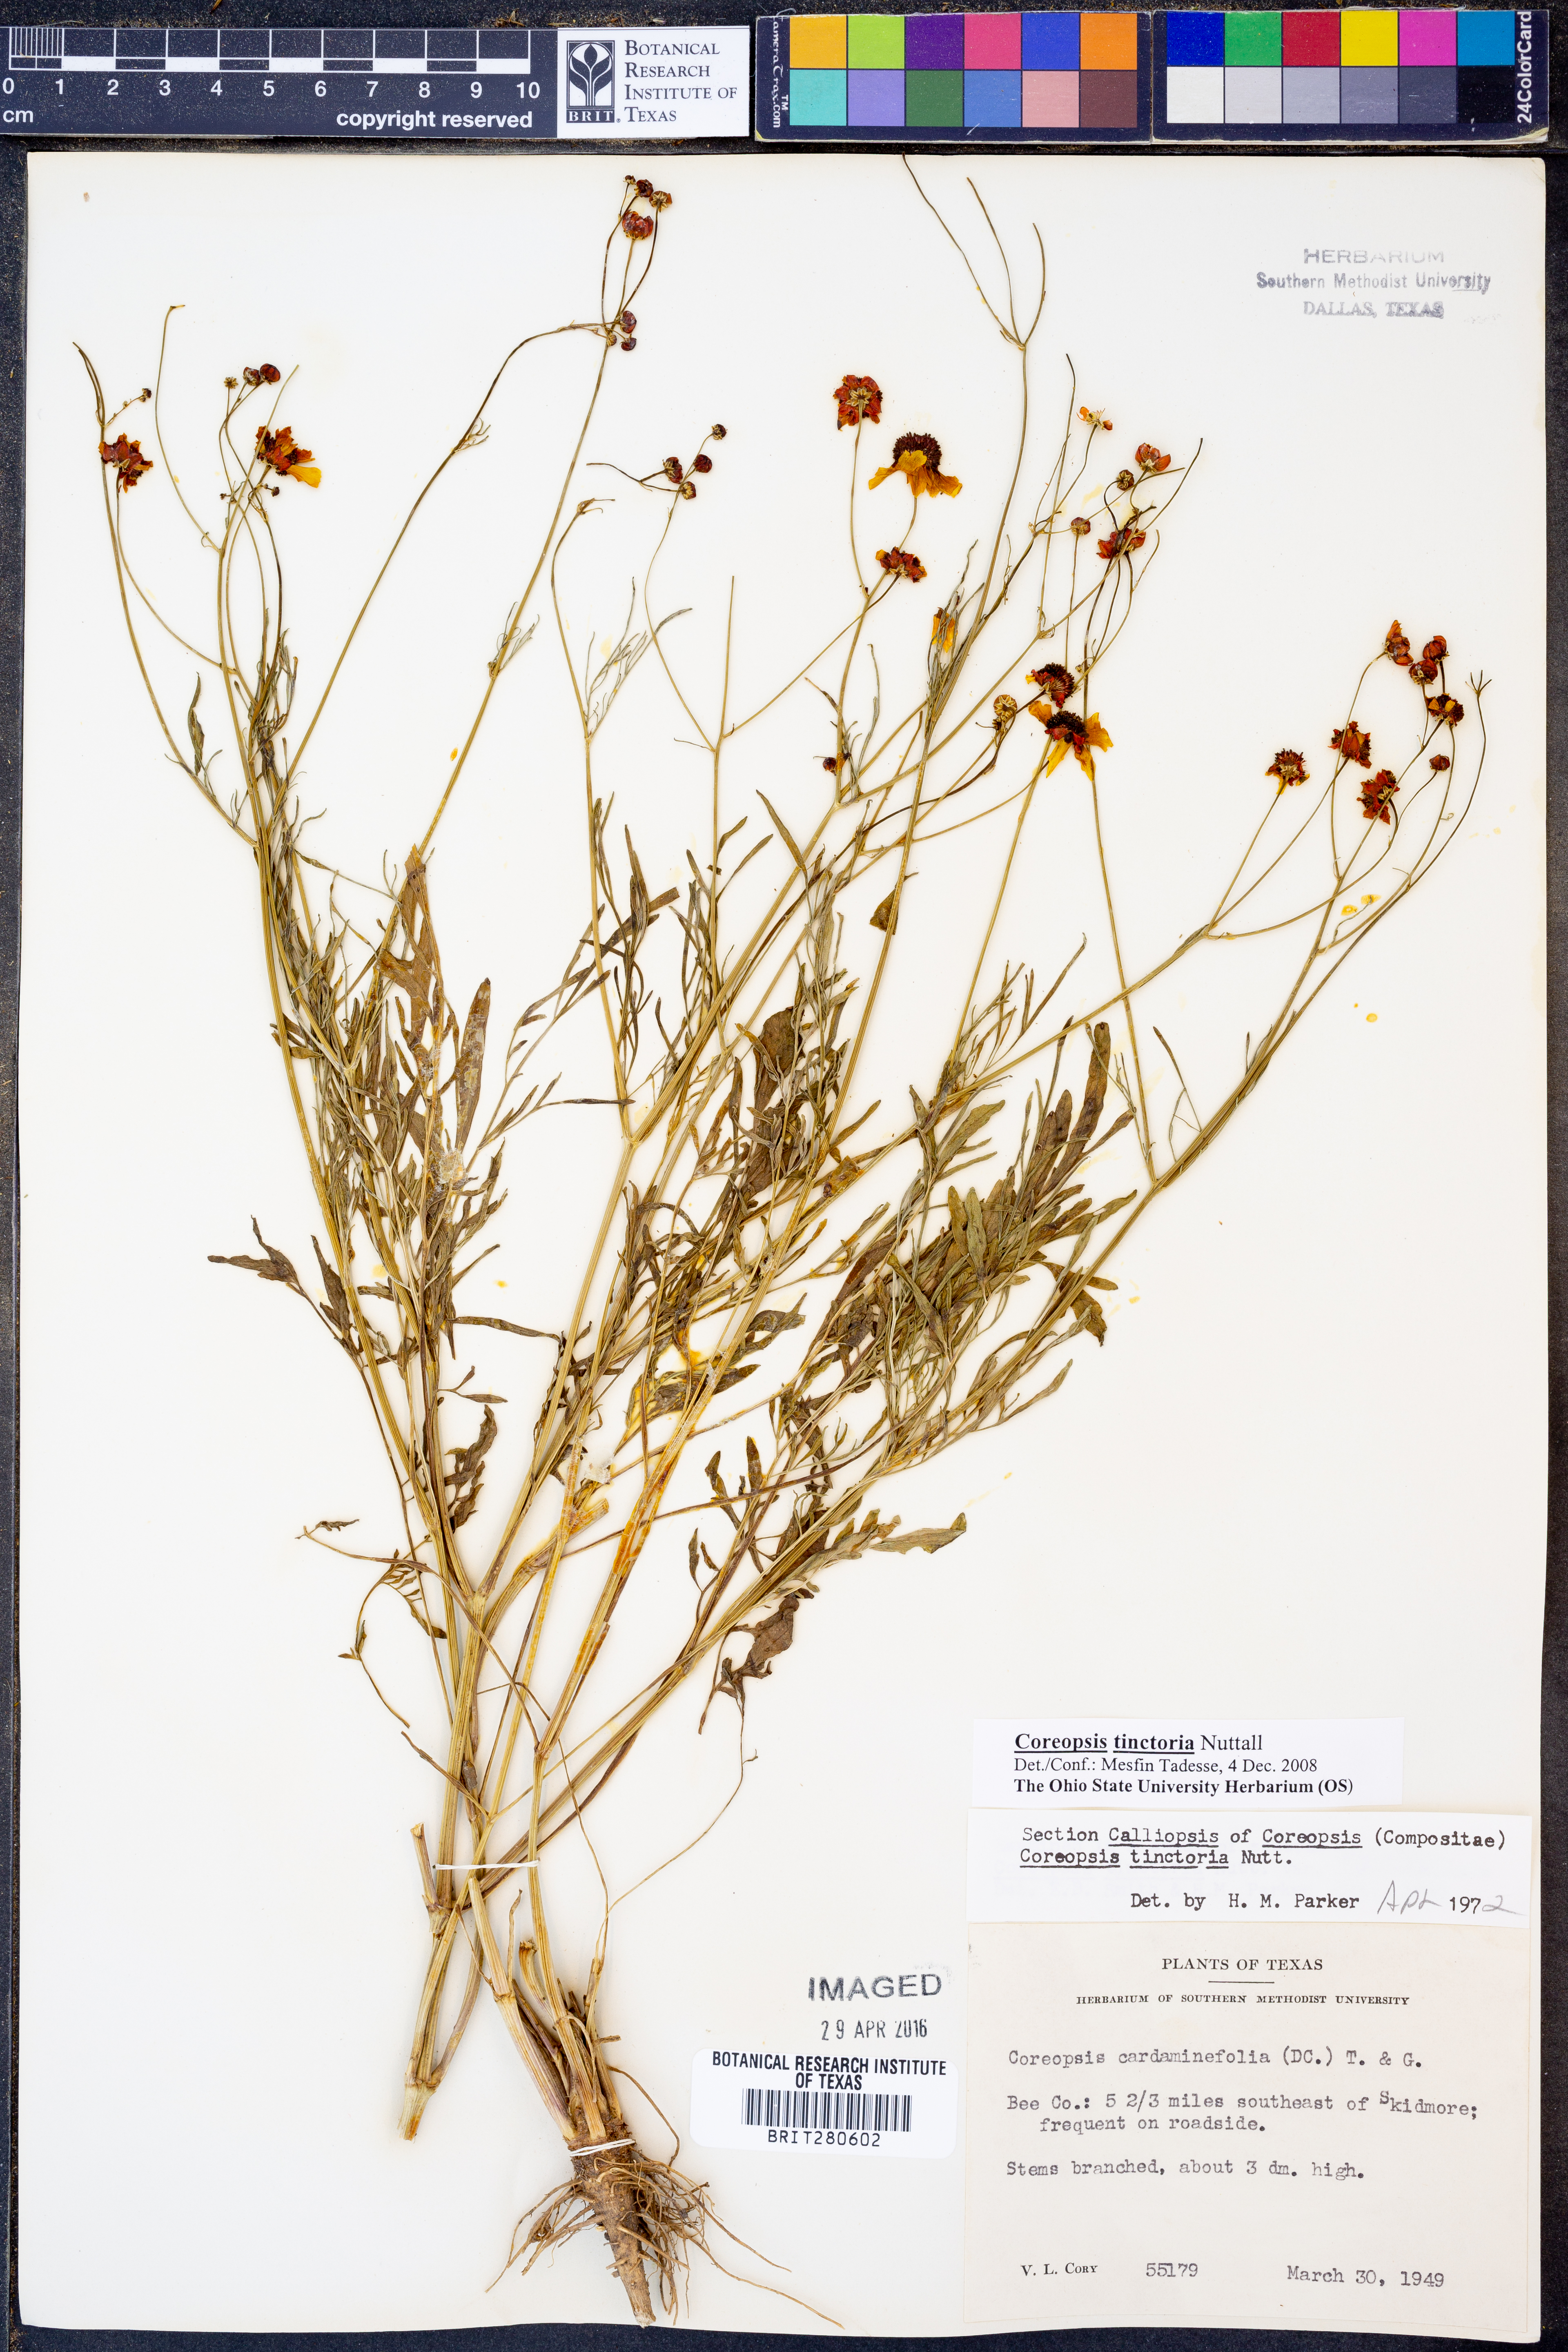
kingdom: Plantae
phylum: Tracheophyta
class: Magnoliopsida
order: Asterales
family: Asteraceae
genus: Coreopsis
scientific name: Coreopsis tinctoria
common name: Garden tickseed
